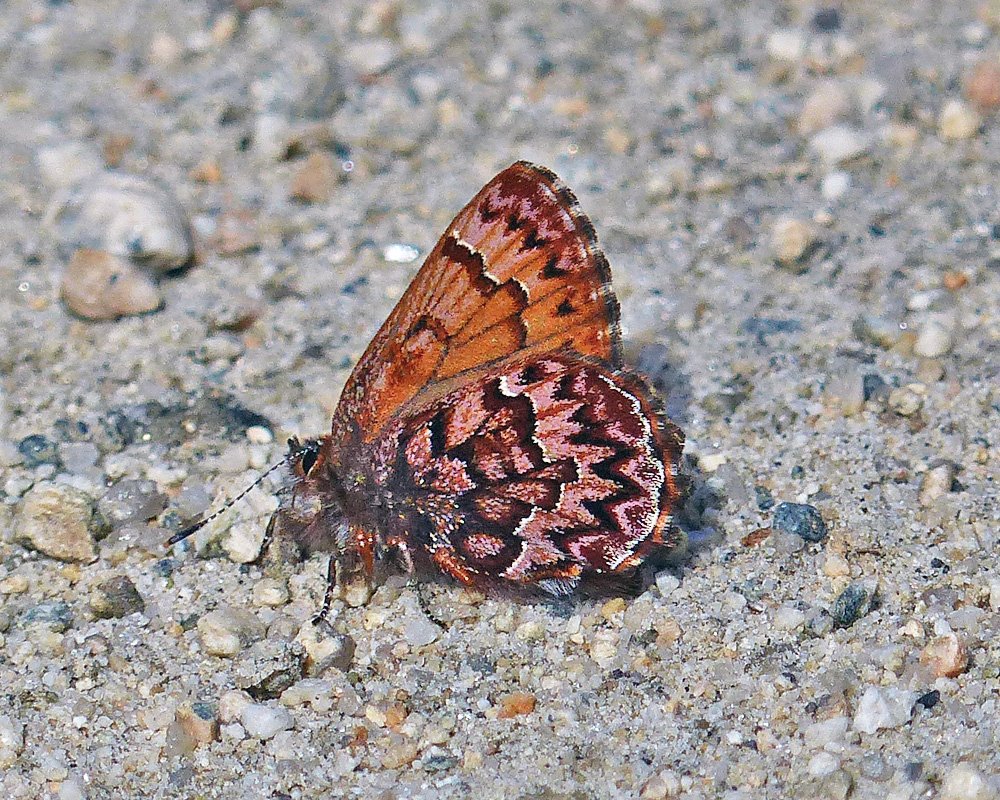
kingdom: Animalia
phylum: Arthropoda
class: Insecta
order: Lepidoptera
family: Lycaenidae
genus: Incisalia
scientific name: Incisalia eryphon
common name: Western Pine Elfin
